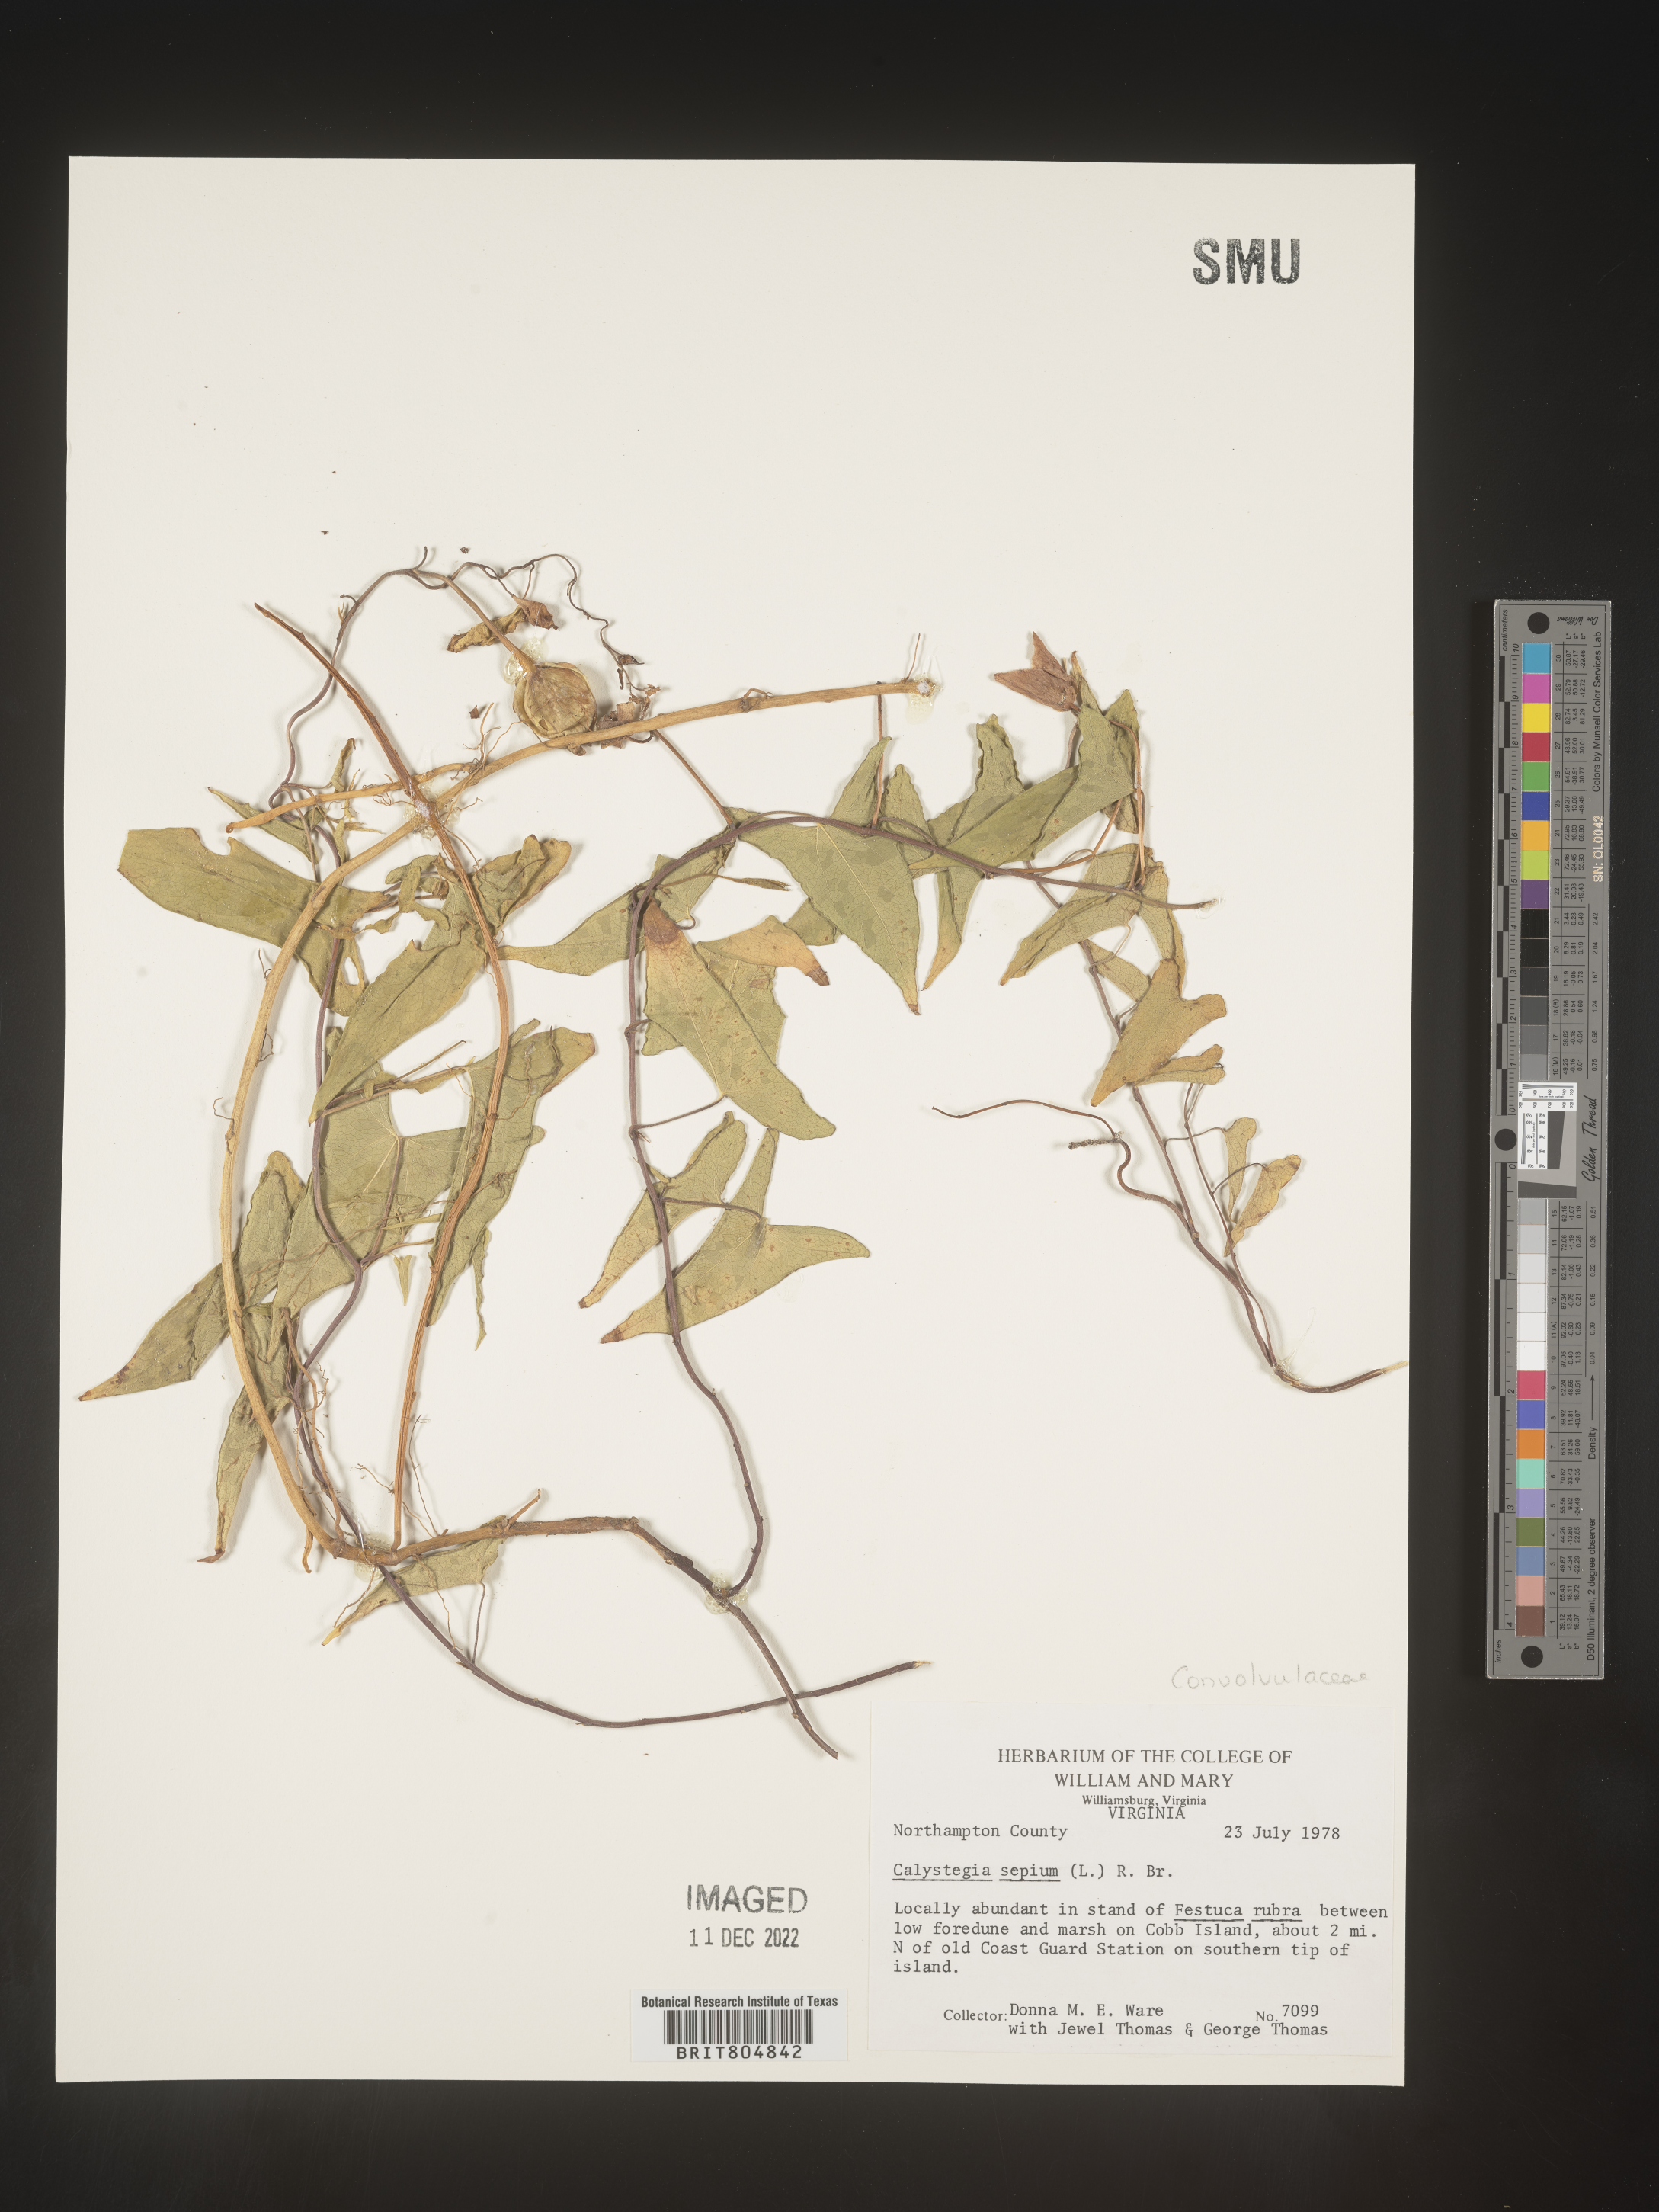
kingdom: Plantae
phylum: Tracheophyta
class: Magnoliopsida
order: Solanales
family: Convolvulaceae
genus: Calystegia
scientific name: Calystegia sepium
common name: Hedge bindweed
